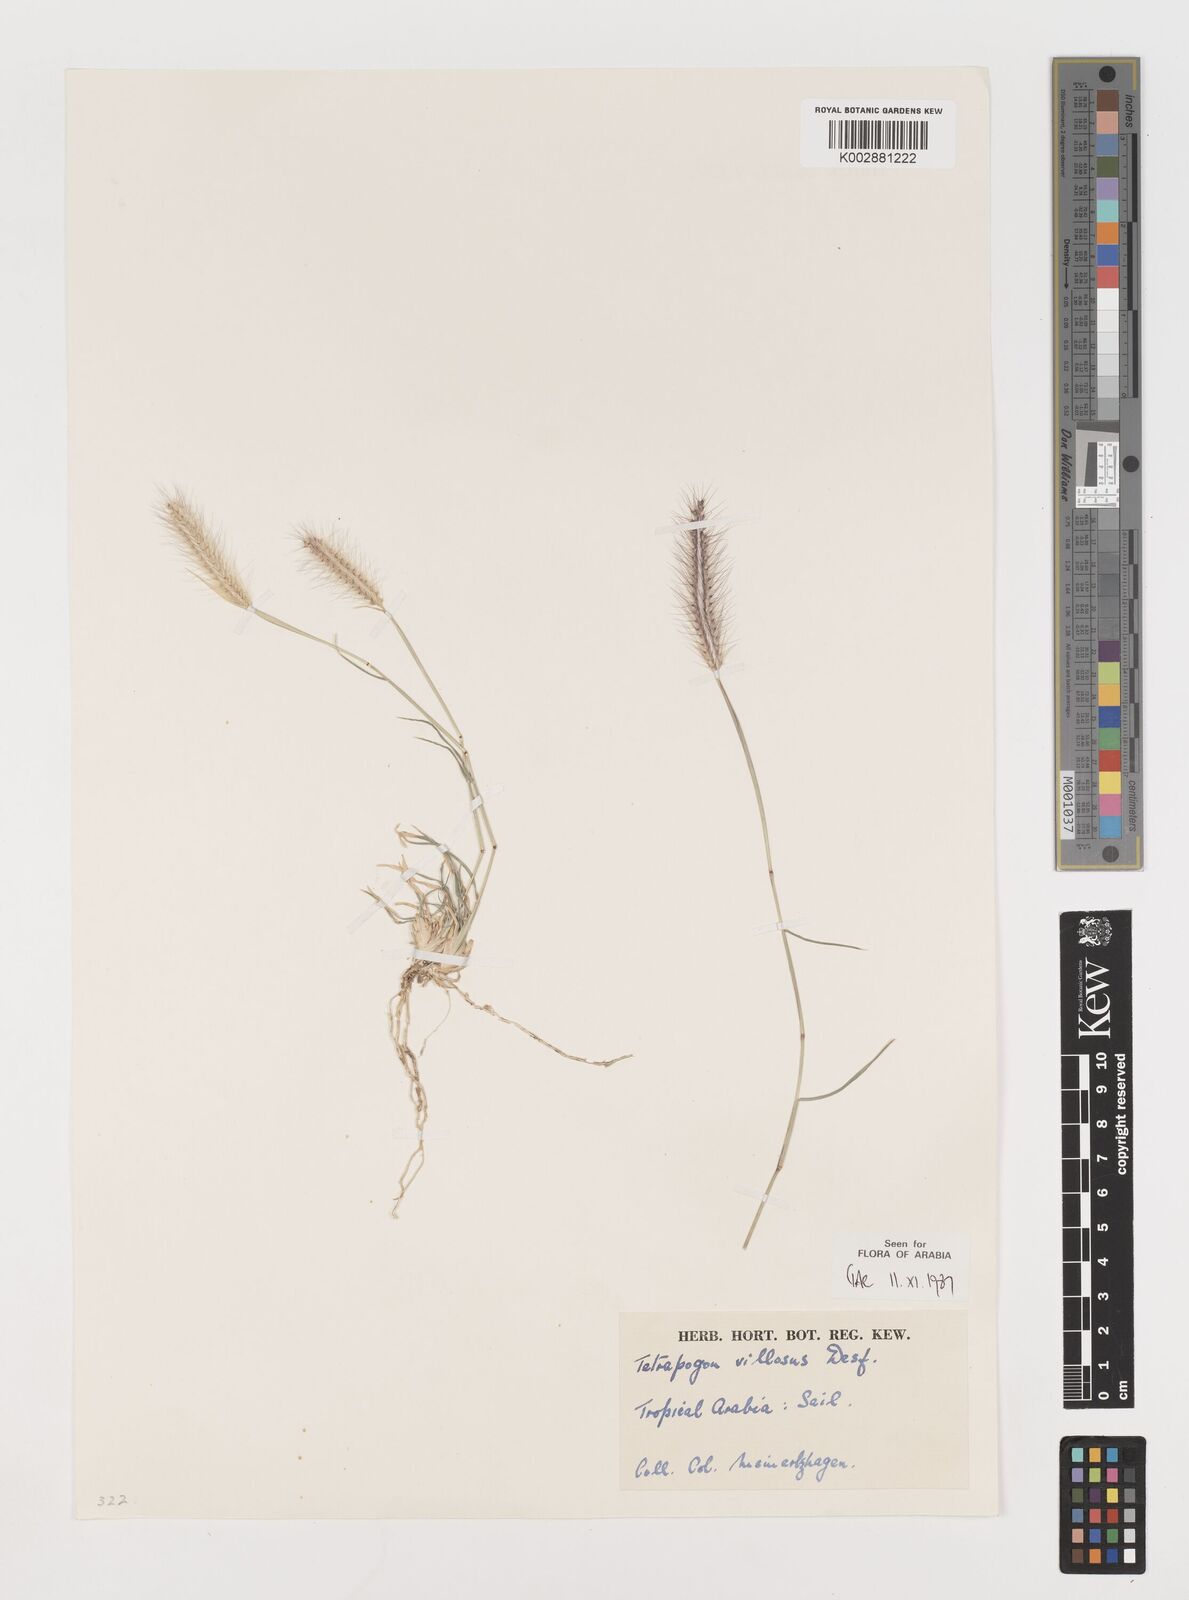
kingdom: Plantae
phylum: Tracheophyta
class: Liliopsida
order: Poales
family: Poaceae
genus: Tetrapogon
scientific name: Tetrapogon villosus
